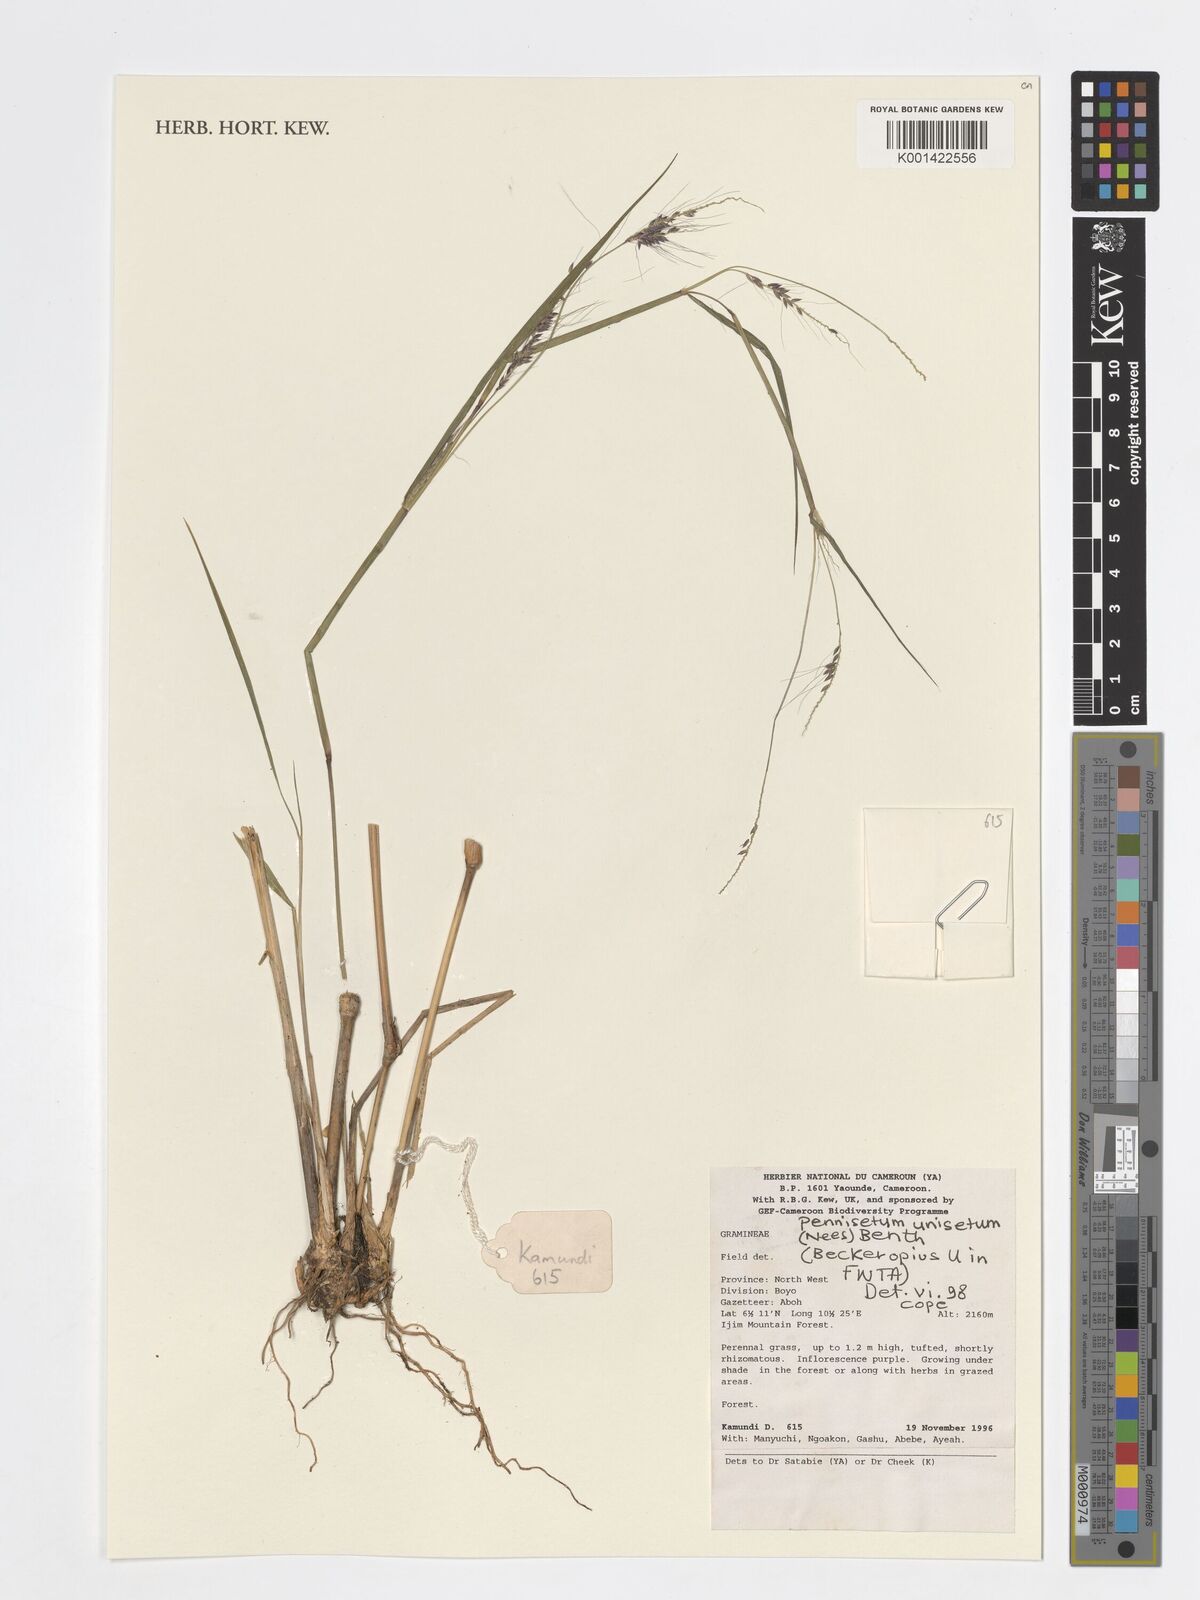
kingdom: Plantae
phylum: Tracheophyta
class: Liliopsida
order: Poales
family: Poaceae
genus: Cenchrus
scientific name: Cenchrus unisetus
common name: Natal grass
